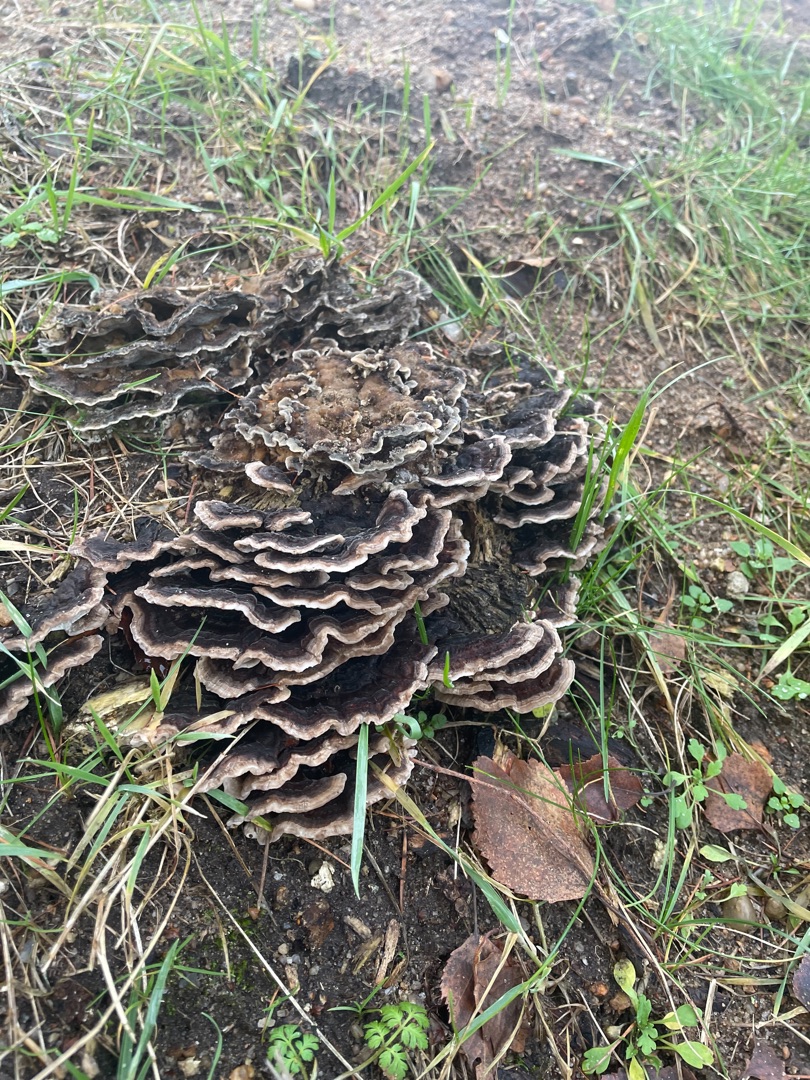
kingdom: Fungi
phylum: Basidiomycota
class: Agaricomycetes
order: Polyporales
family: Polyporaceae
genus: Trametes
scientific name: Trametes versicolor
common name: Broget læderporesvamp
